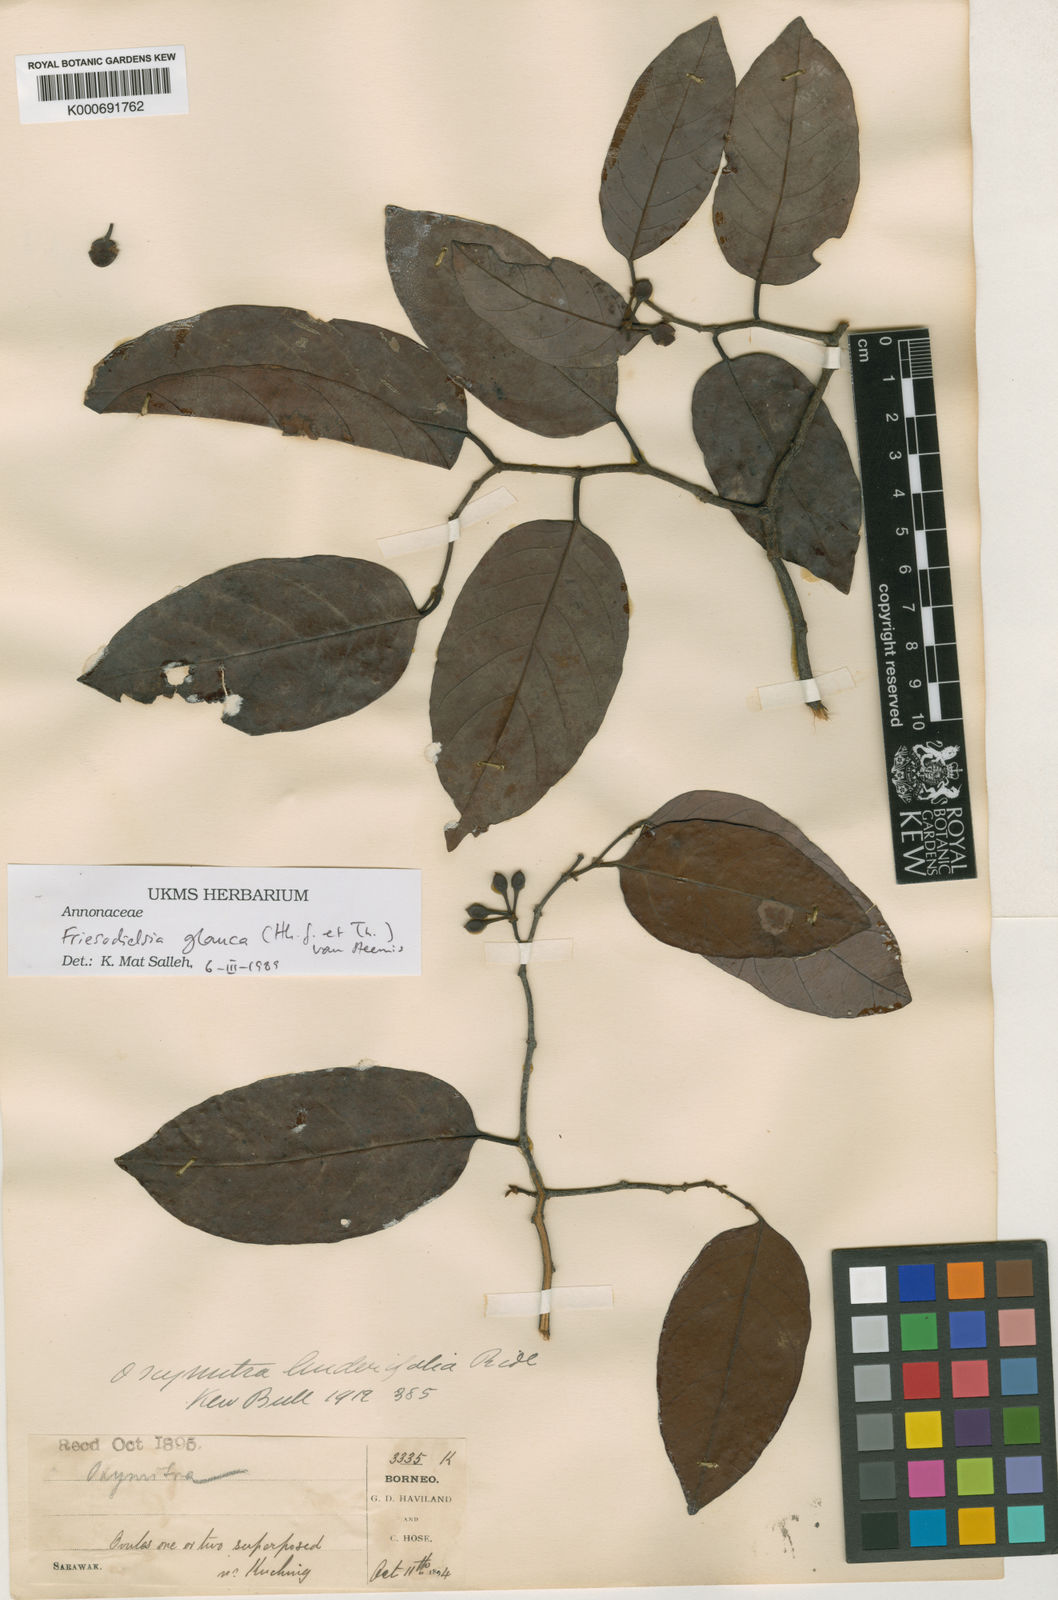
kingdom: Plantae
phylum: Tracheophyta
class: Magnoliopsida
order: Magnoliales
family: Annonaceae
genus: Friesodielsia
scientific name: Friesodielsia glauca
